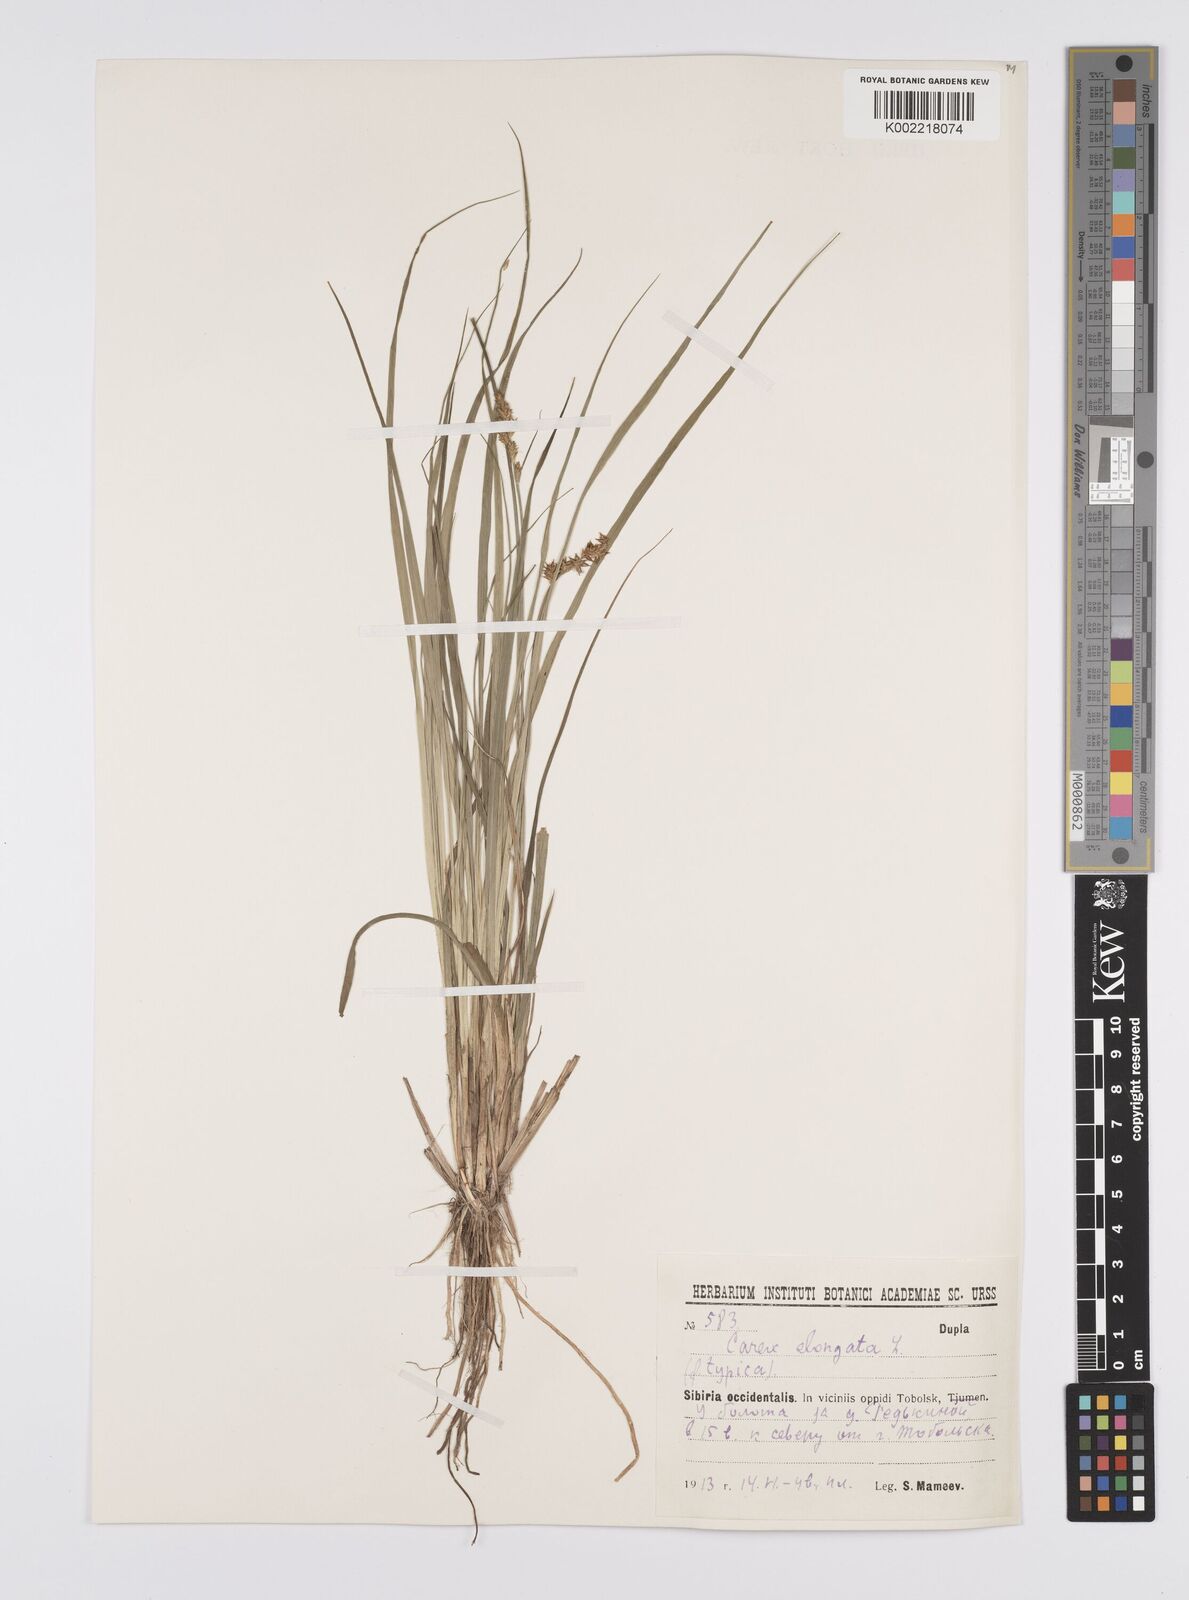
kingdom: Plantae
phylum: Tracheophyta
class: Liliopsida
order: Poales
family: Cyperaceae
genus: Carex
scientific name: Carex elongata
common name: Elongated sedge
